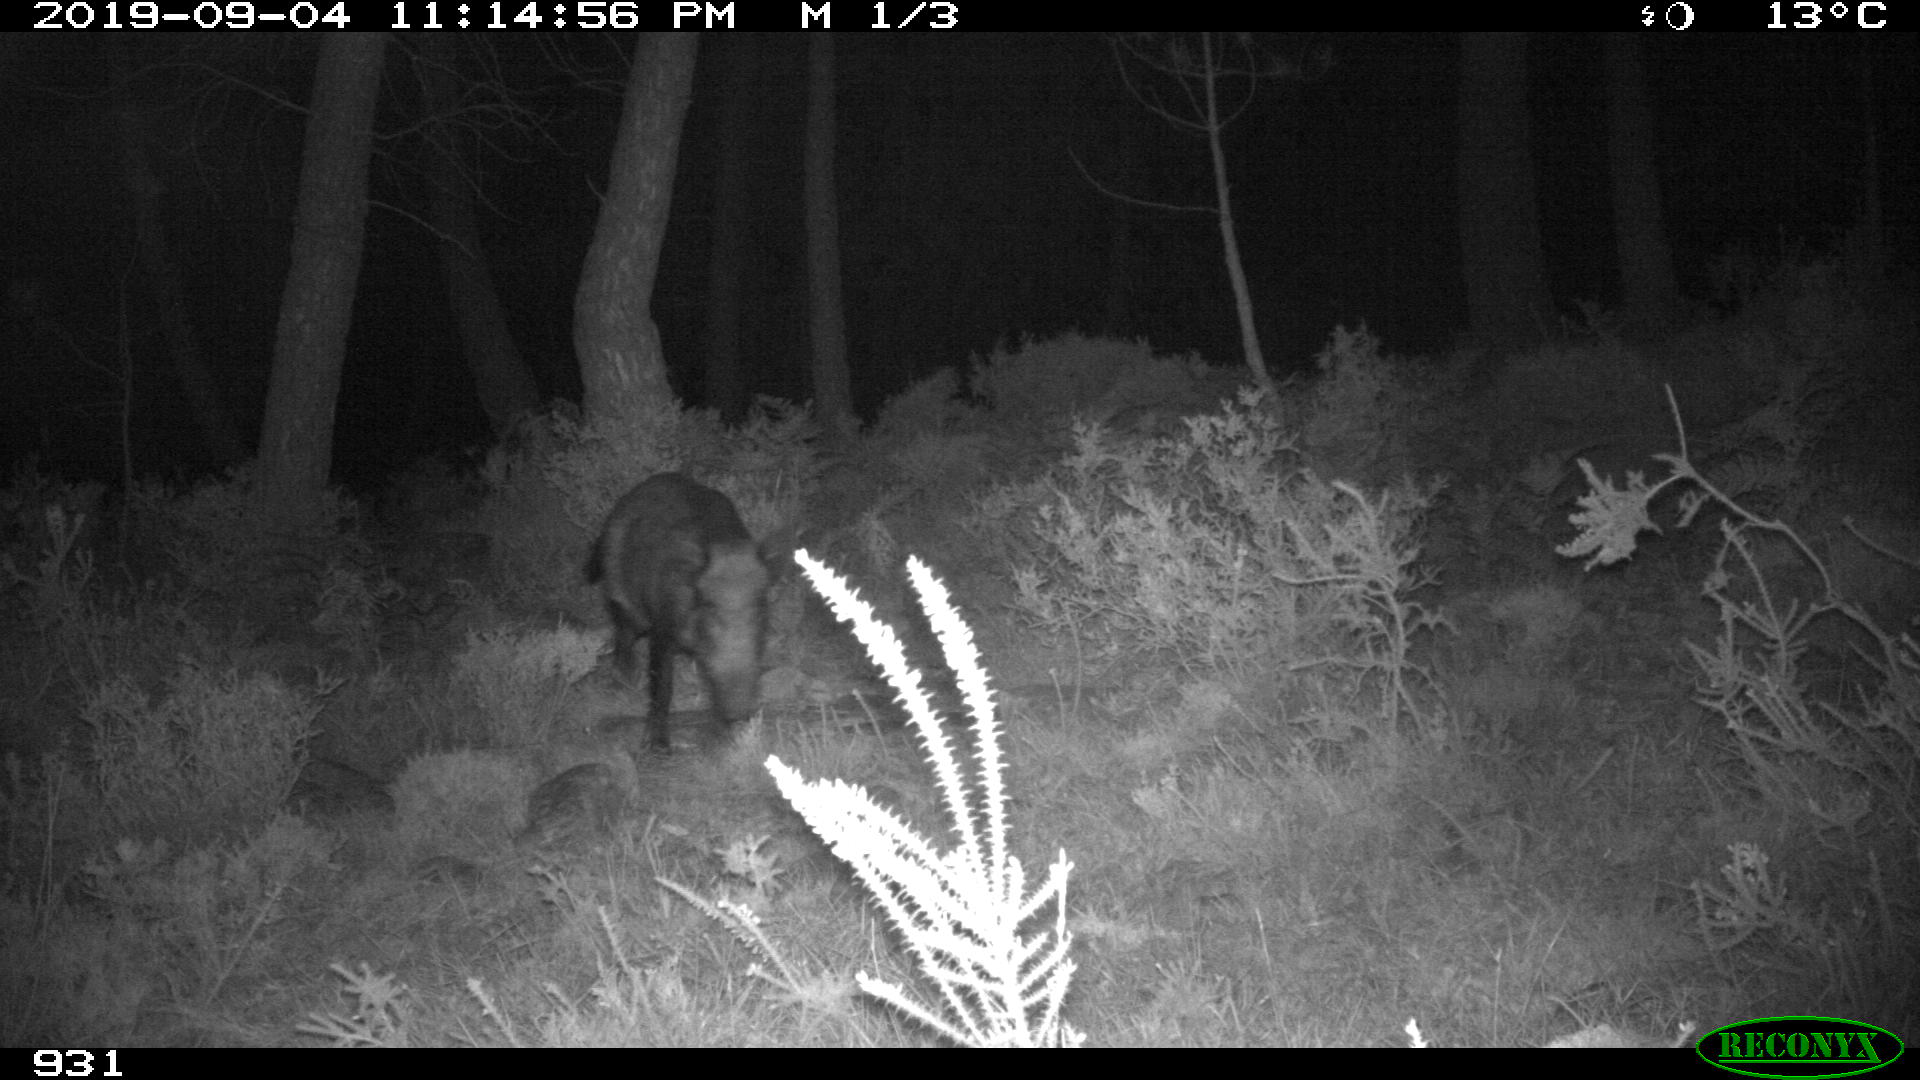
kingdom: Animalia
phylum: Chordata
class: Mammalia
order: Artiodactyla
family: Suidae
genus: Sus
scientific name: Sus scrofa
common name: Wild boar
